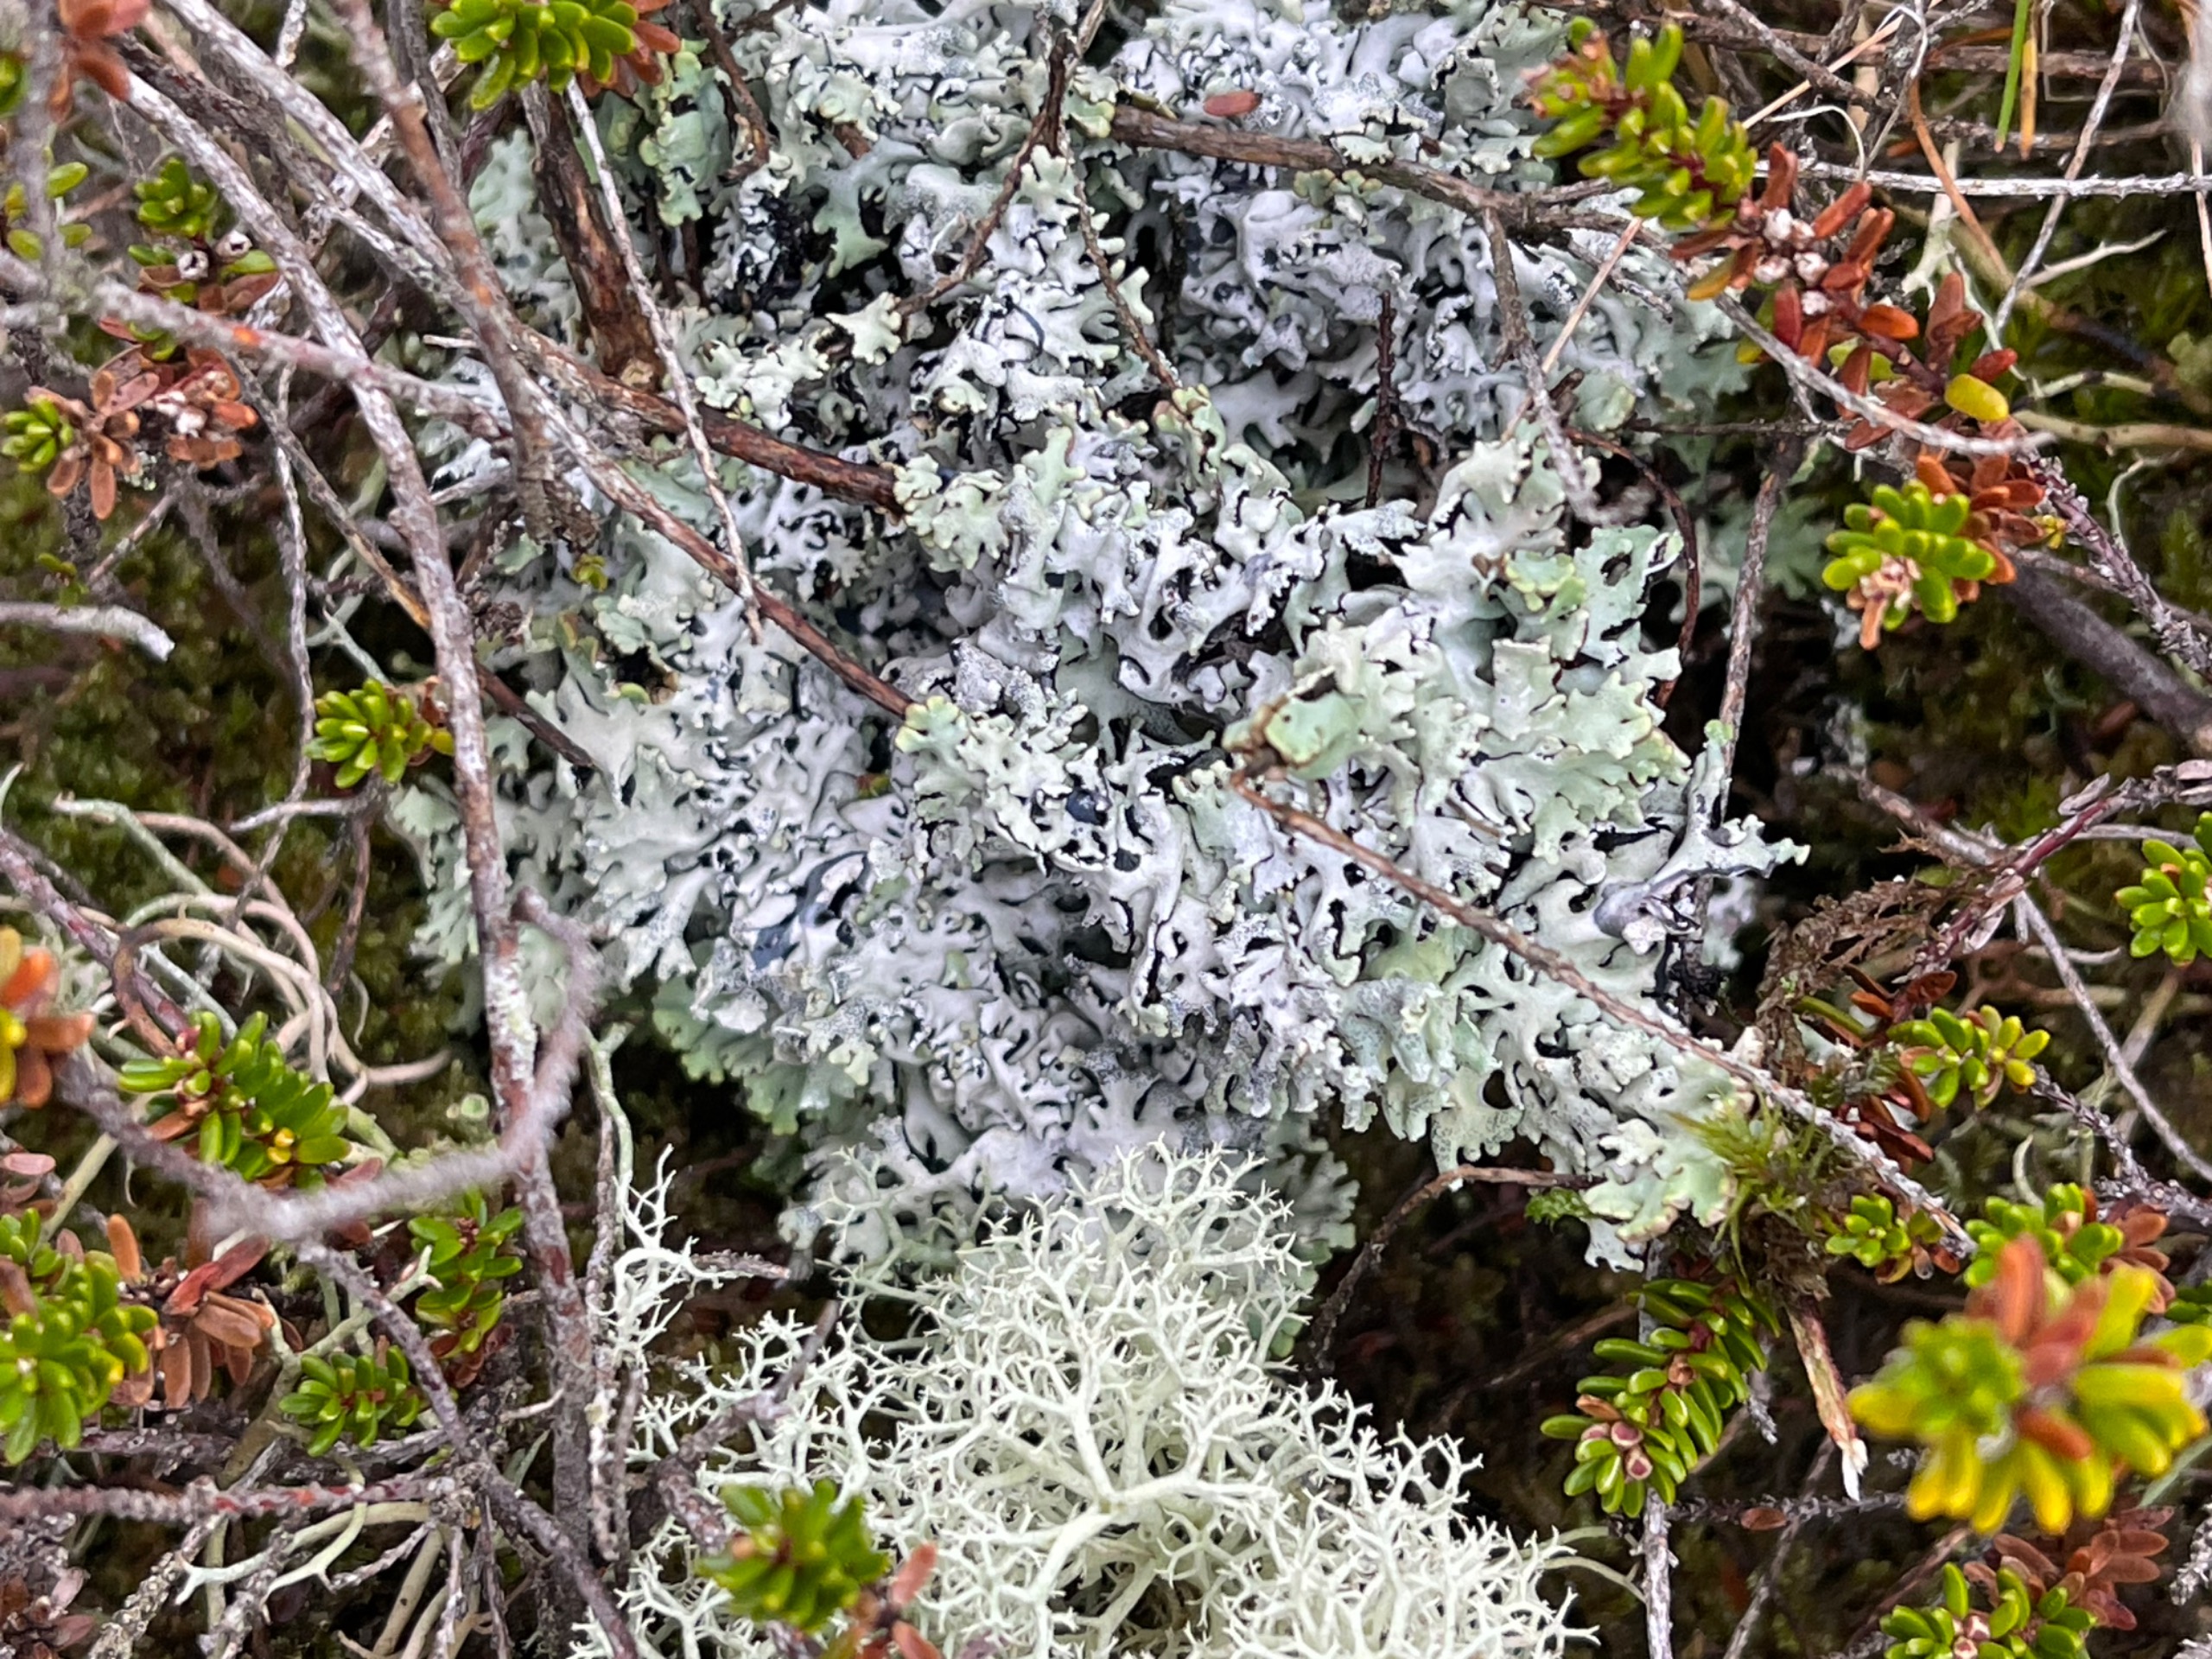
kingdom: Fungi
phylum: Ascomycota
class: Lecanoromycetes
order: Lecanorales
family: Parmeliaceae
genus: Hypogymnia
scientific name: Hypogymnia physodes
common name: Almindelig kvistlav
